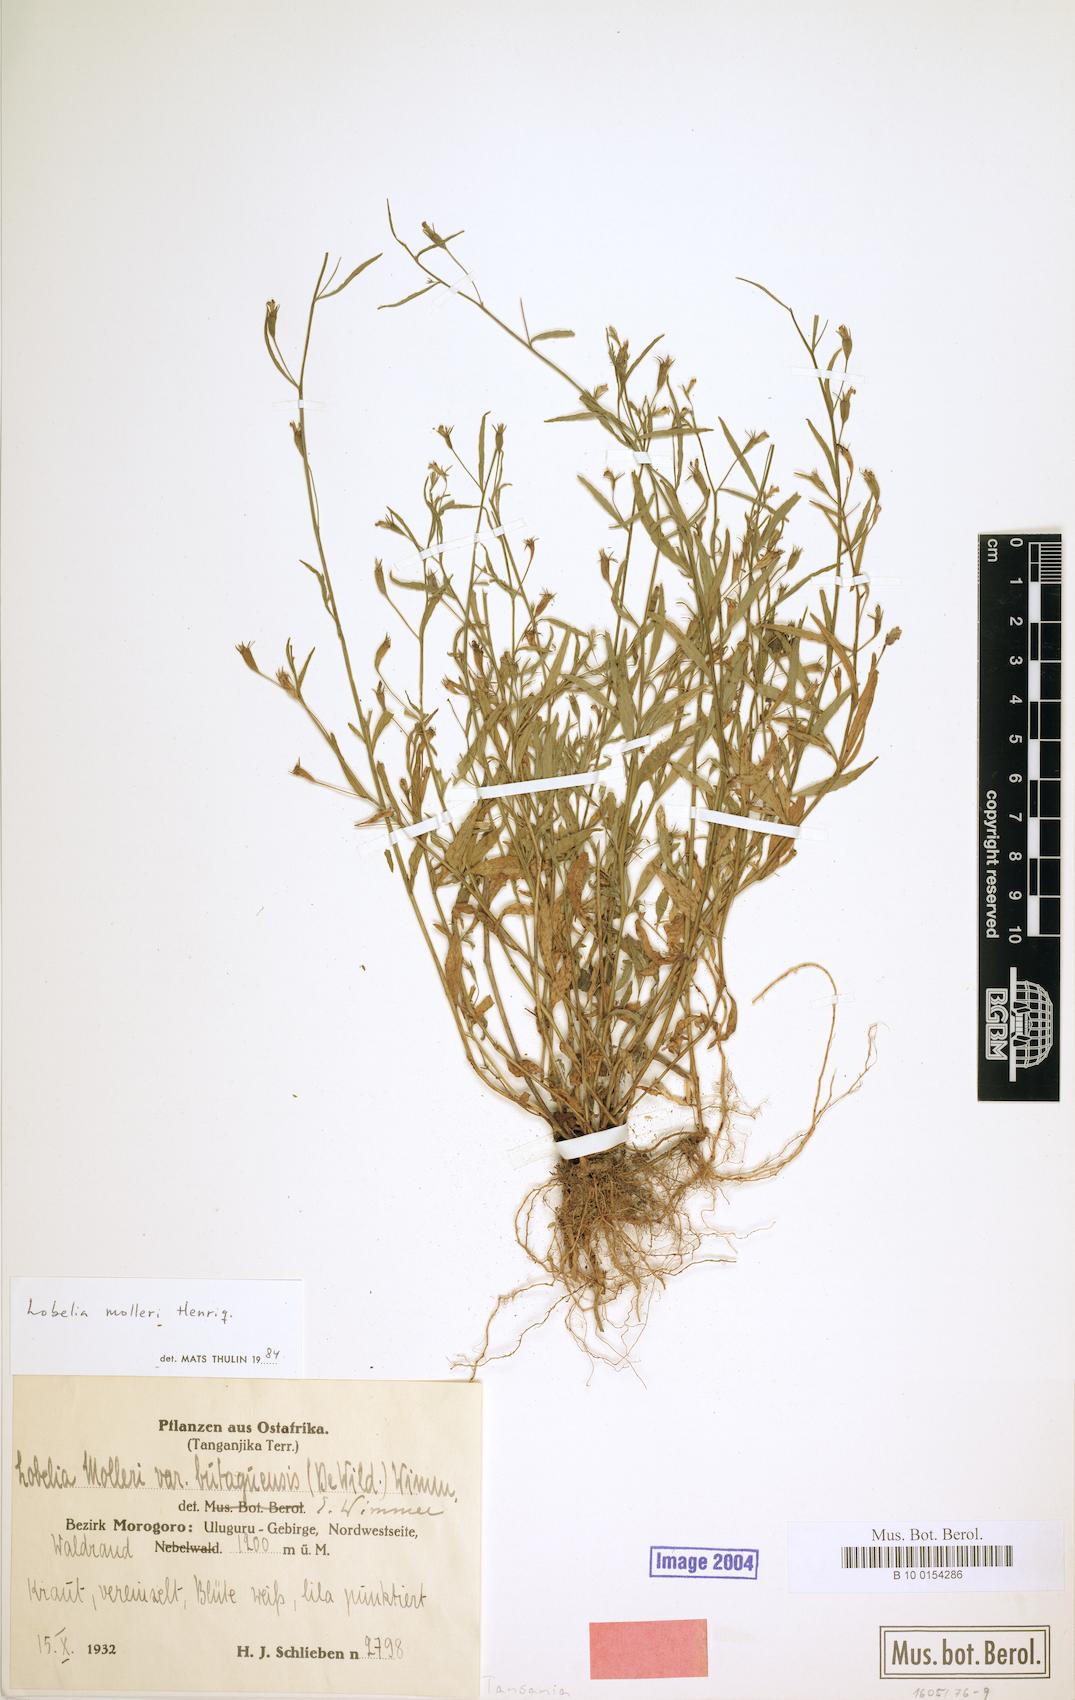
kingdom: Plantae
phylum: Tracheophyta
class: Magnoliopsida
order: Asterales
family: Campanulaceae
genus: Lobelia
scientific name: Lobelia molleri
